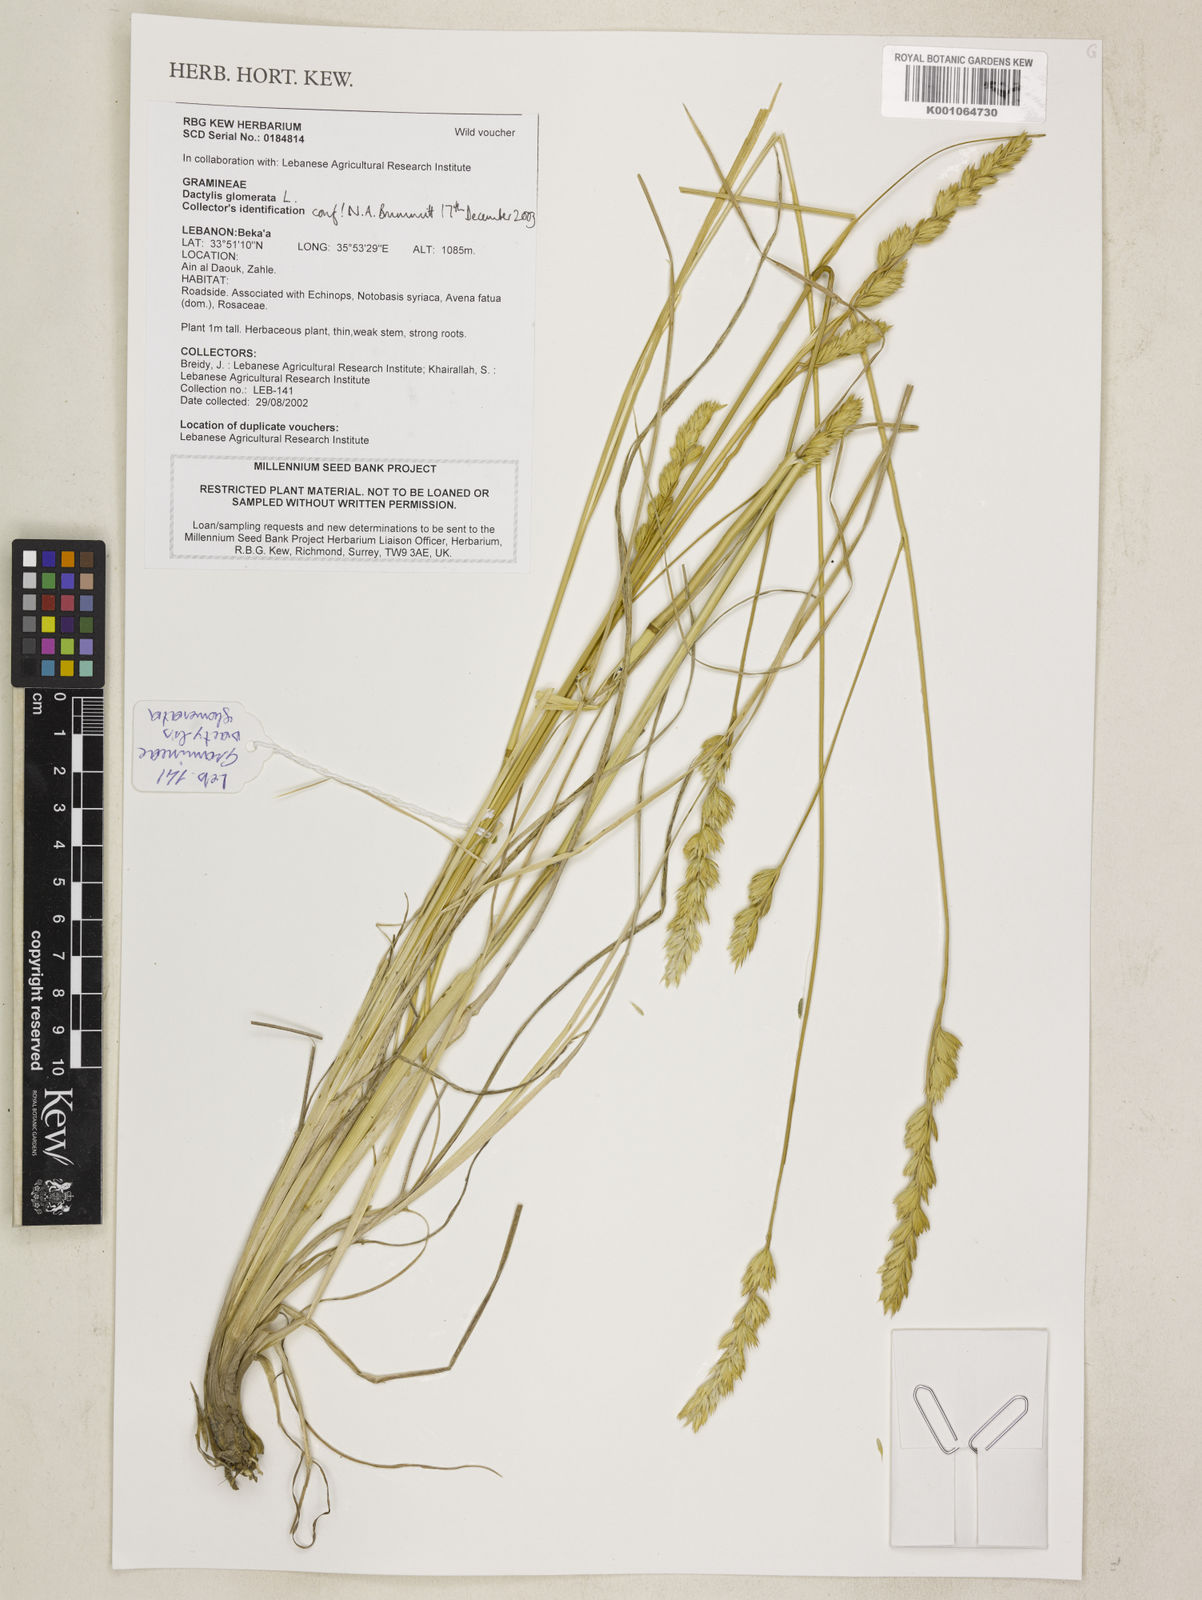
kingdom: Plantae
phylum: Tracheophyta
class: Liliopsida
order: Poales
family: Poaceae
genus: Dactylis
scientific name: Dactylis glomerata
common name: Orchardgrass
